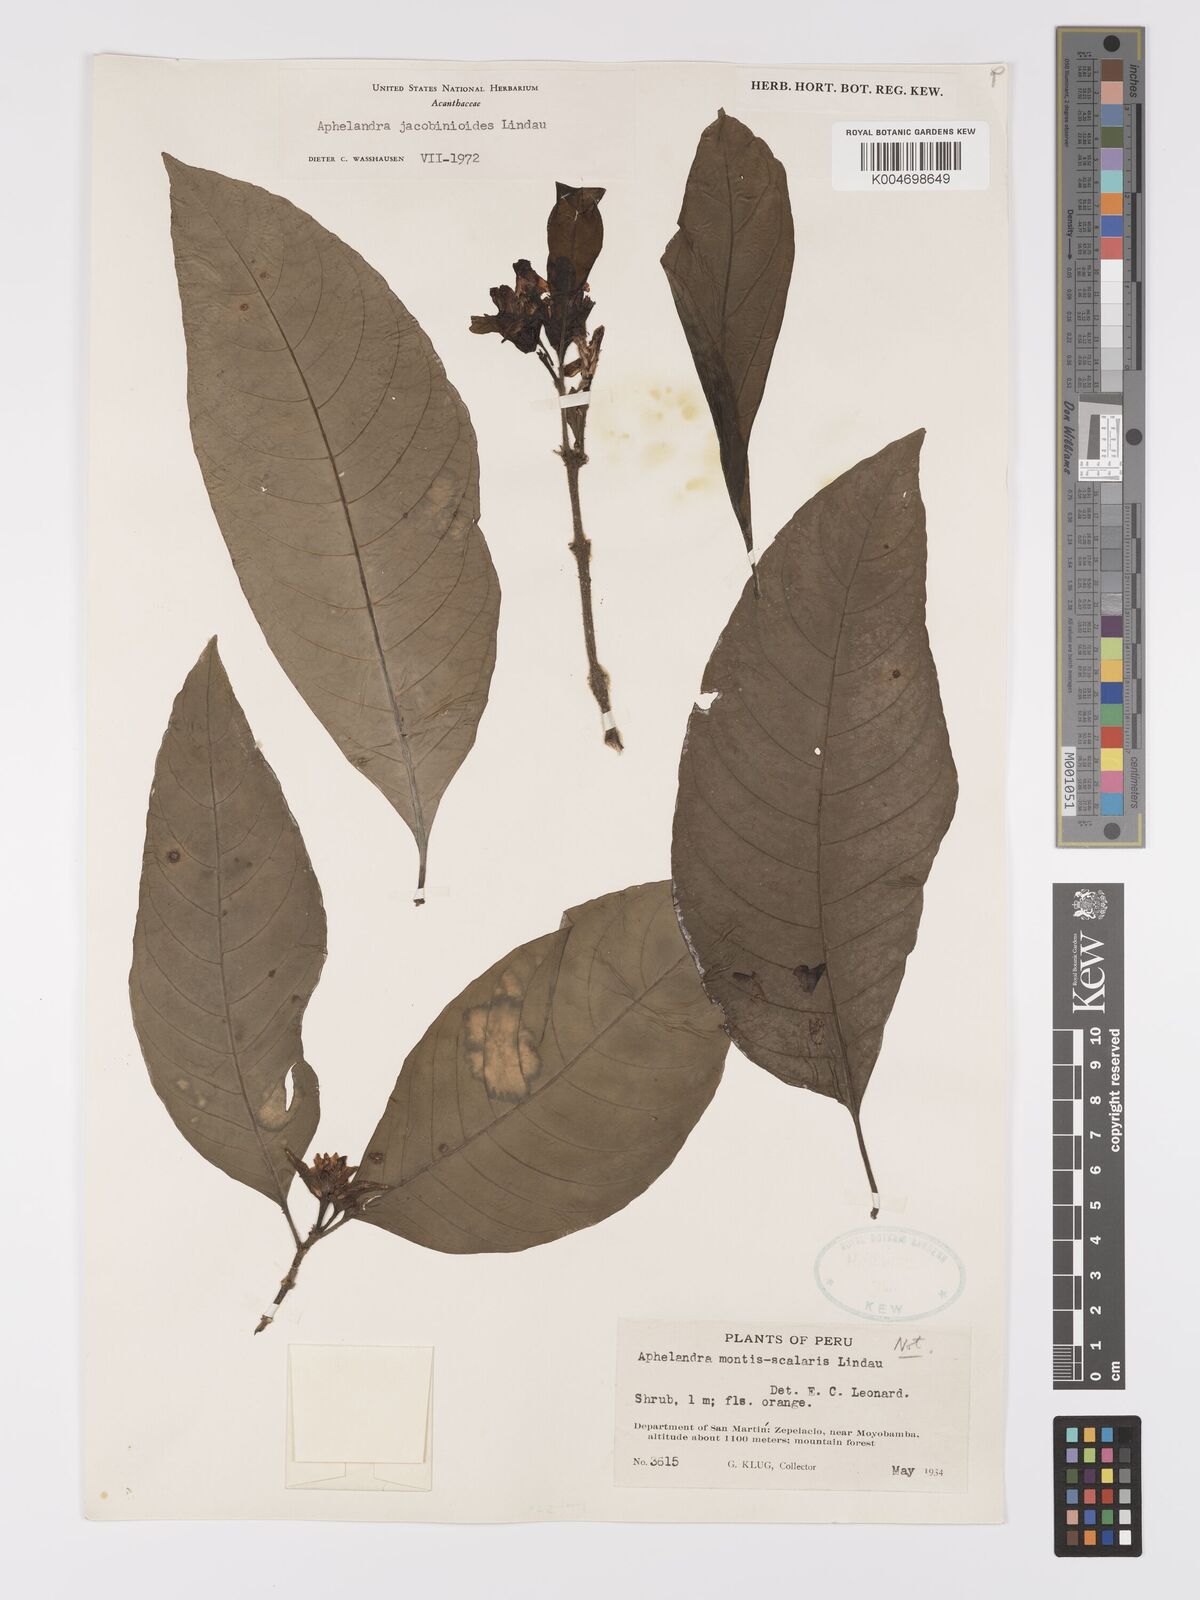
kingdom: Plantae
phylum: Tracheophyta
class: Magnoliopsida
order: Lamiales
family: Acanthaceae
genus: Aphelandra
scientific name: Aphelandra jacobinioides
